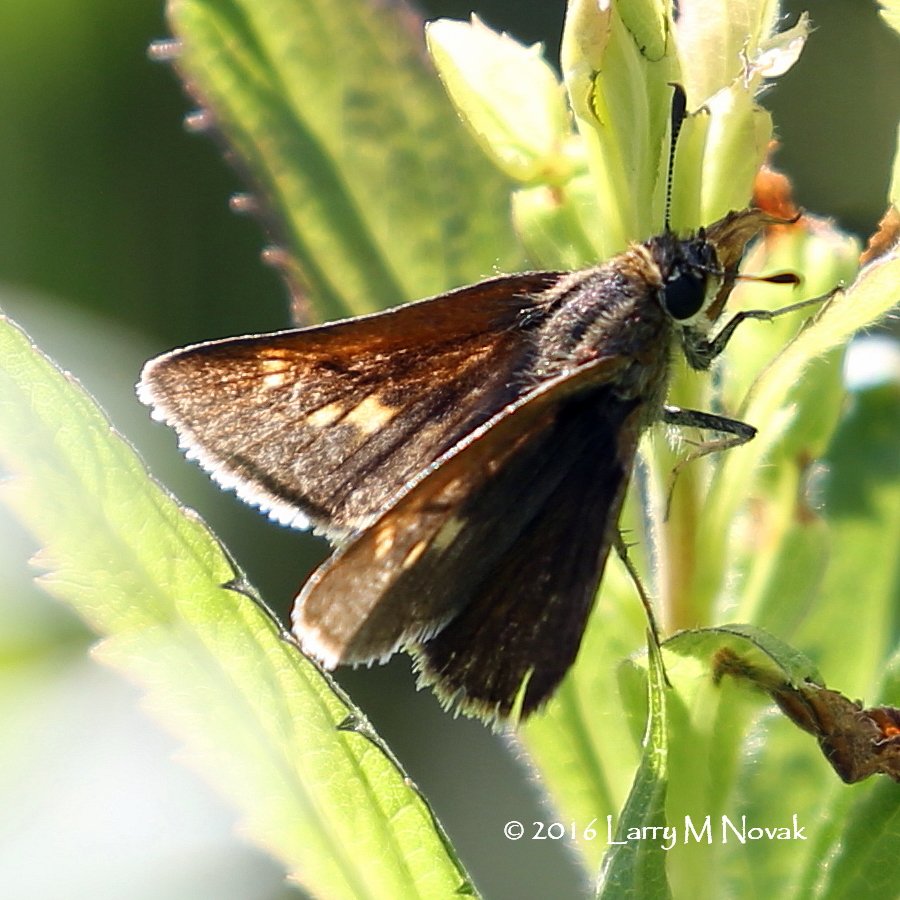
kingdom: Animalia
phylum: Arthropoda
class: Insecta
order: Lepidoptera
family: Hesperiidae
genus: Polites
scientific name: Polites egeremet
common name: Northern Broken-Dash
